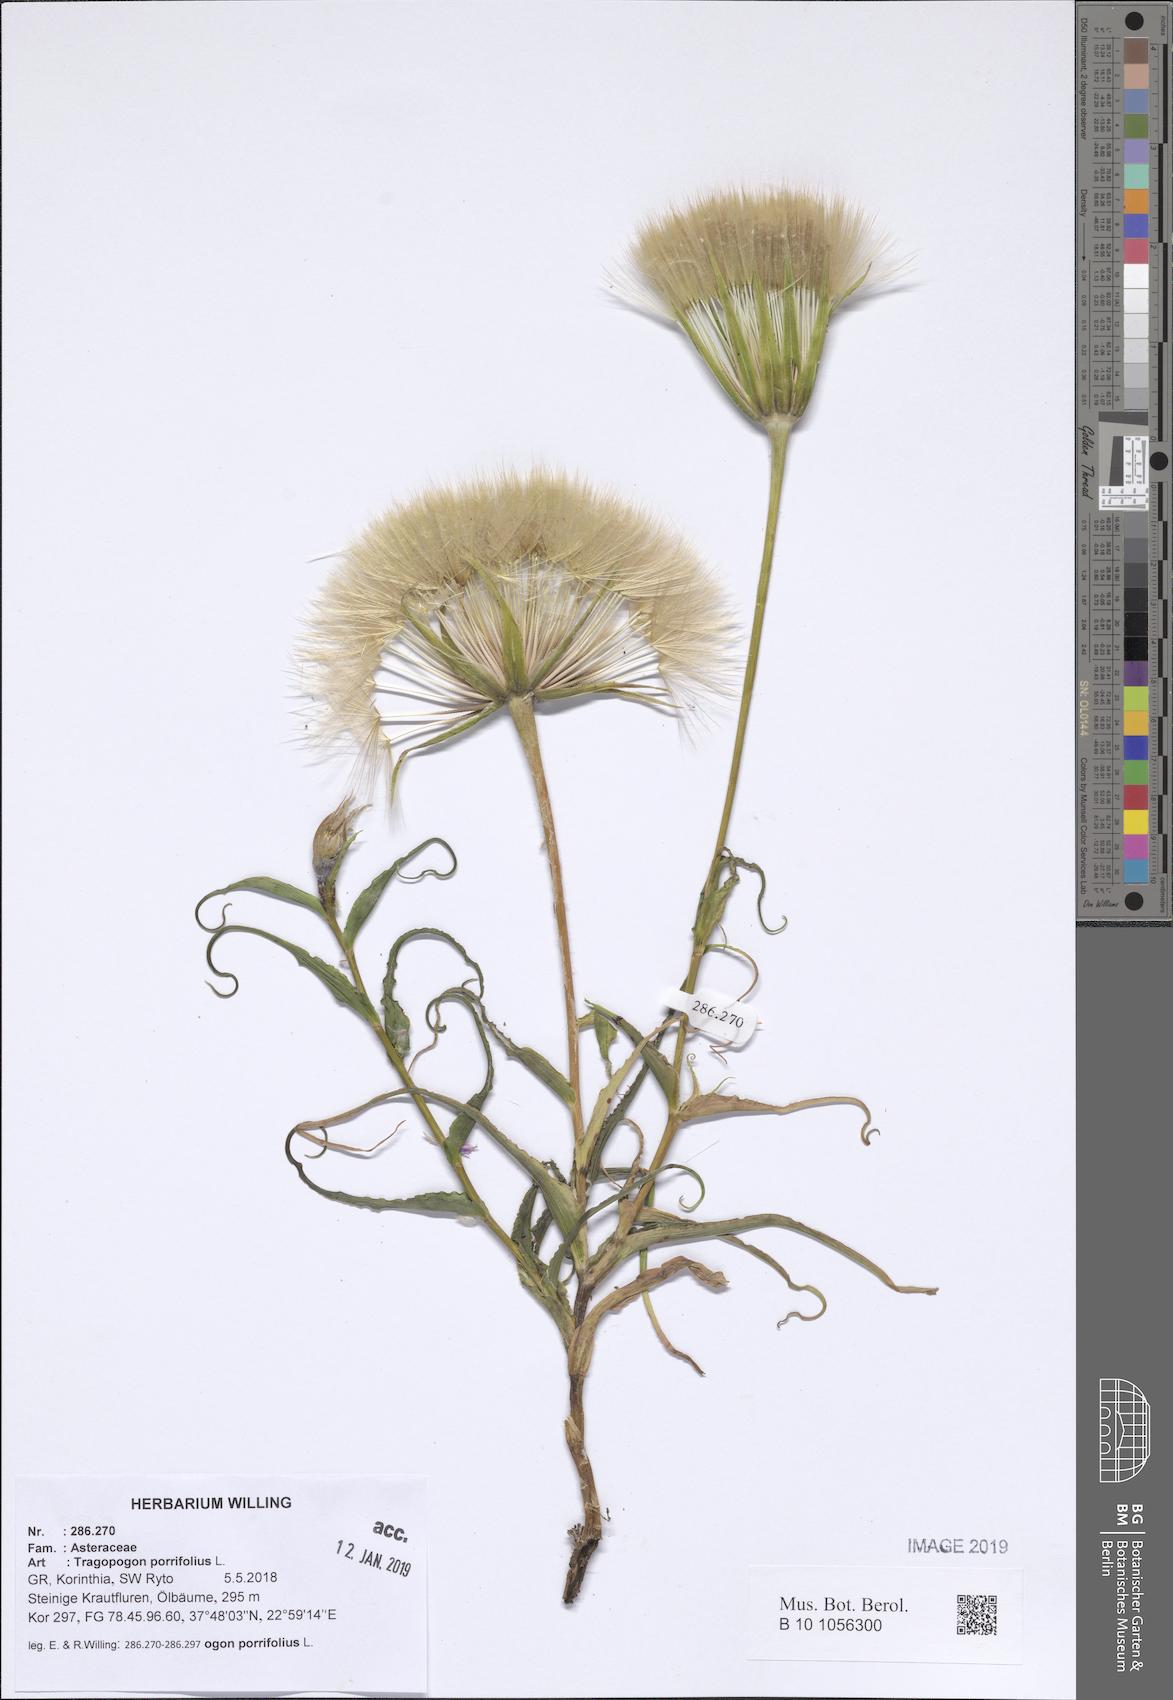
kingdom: Plantae
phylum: Tracheophyta
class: Magnoliopsida
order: Asterales
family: Asteraceae
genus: Tragopogon
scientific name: Tragopogon porrifolius
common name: Salsify
